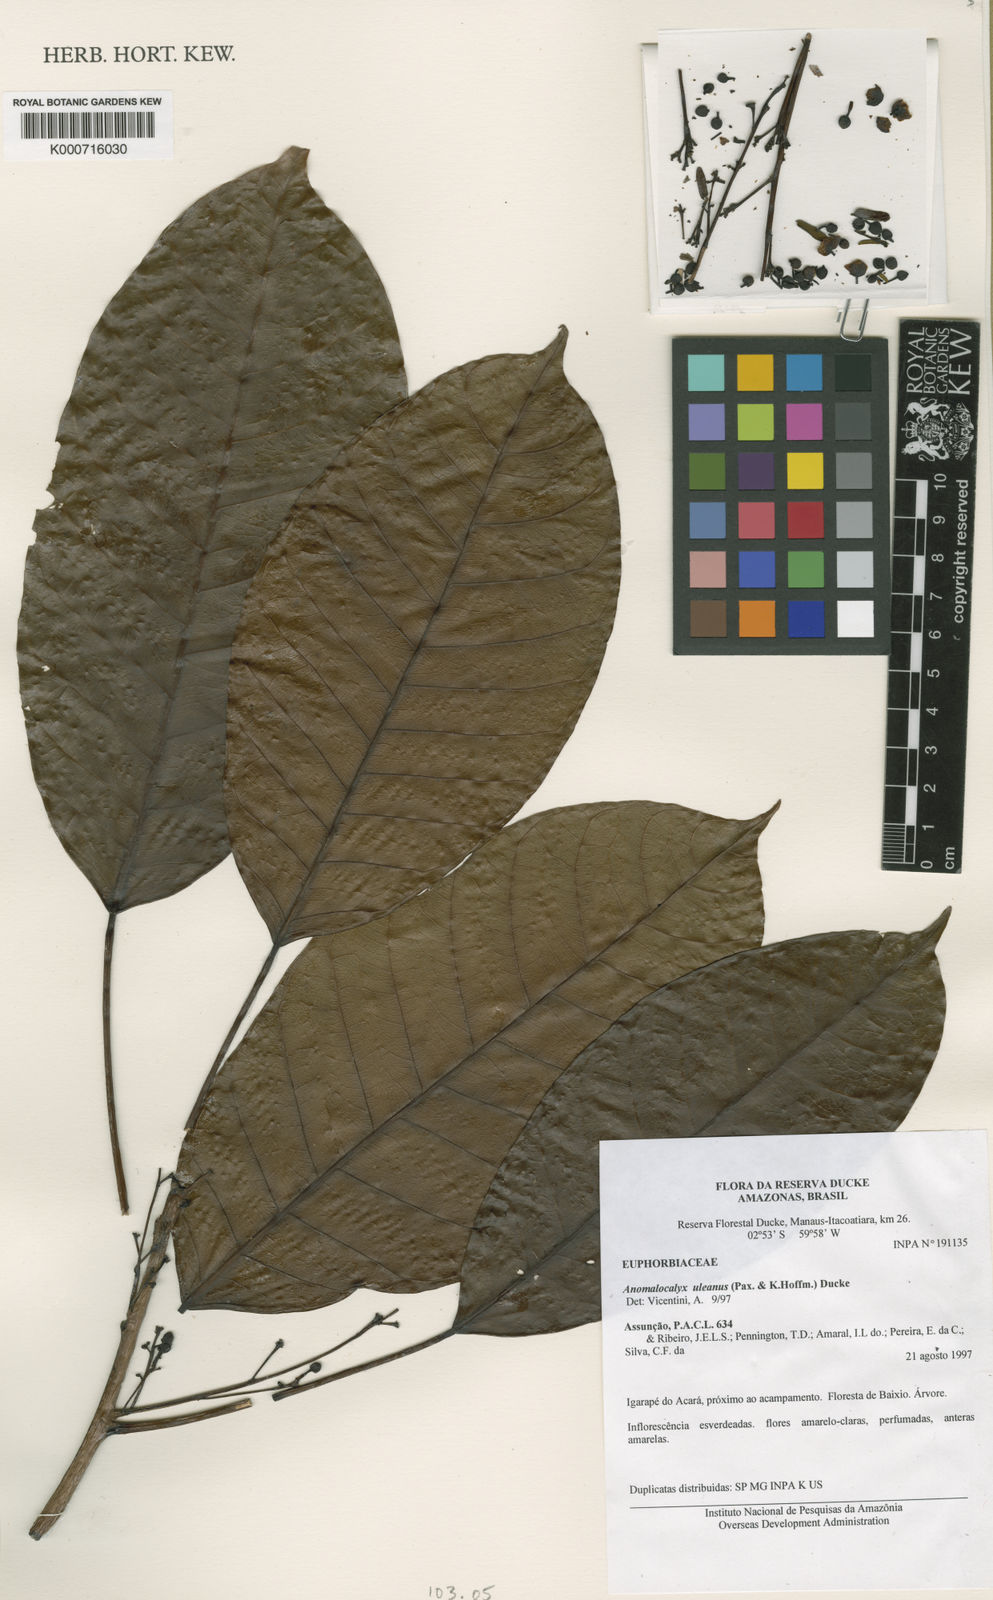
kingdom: Plantae
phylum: Tracheophyta
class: Magnoliopsida
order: Malpighiales
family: Euphorbiaceae
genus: Dodecastigma
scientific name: Dodecastigma uleanum
